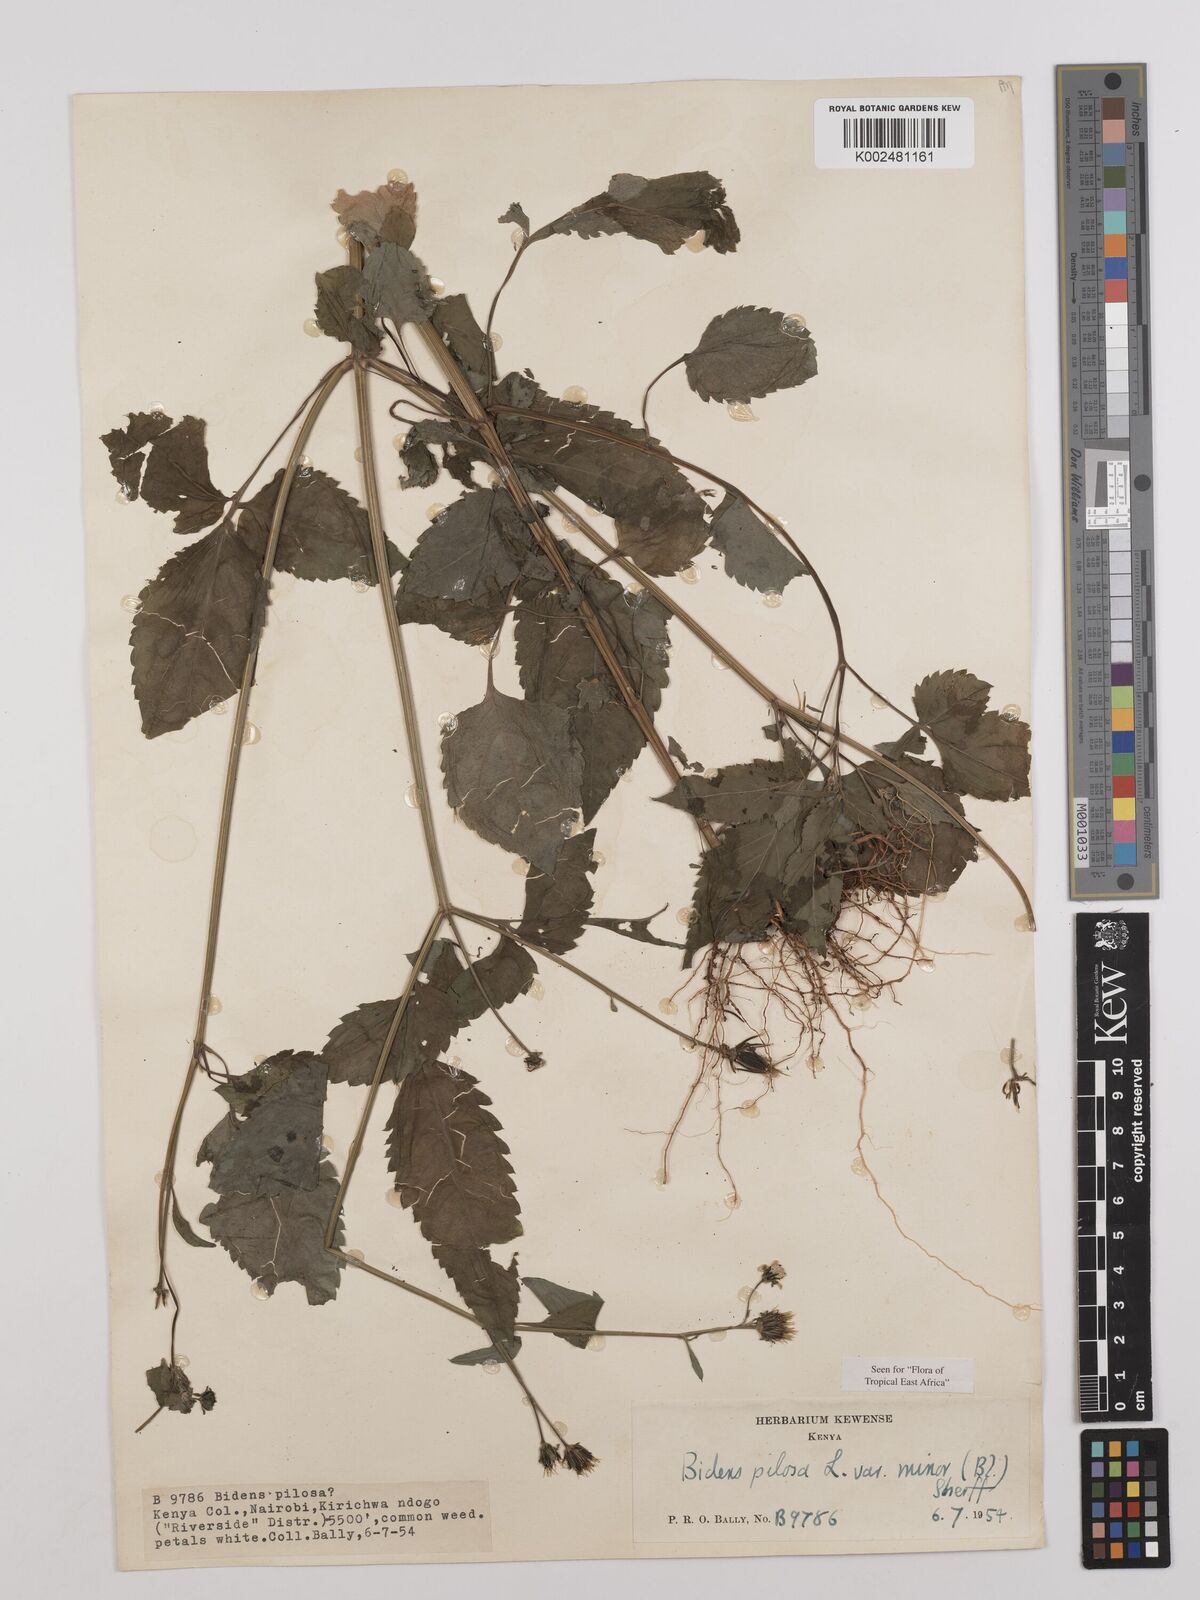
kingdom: Plantae
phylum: Tracheophyta
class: Magnoliopsida
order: Asterales
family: Asteraceae
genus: Bidens
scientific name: Bidens pilosa
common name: Black-jack
